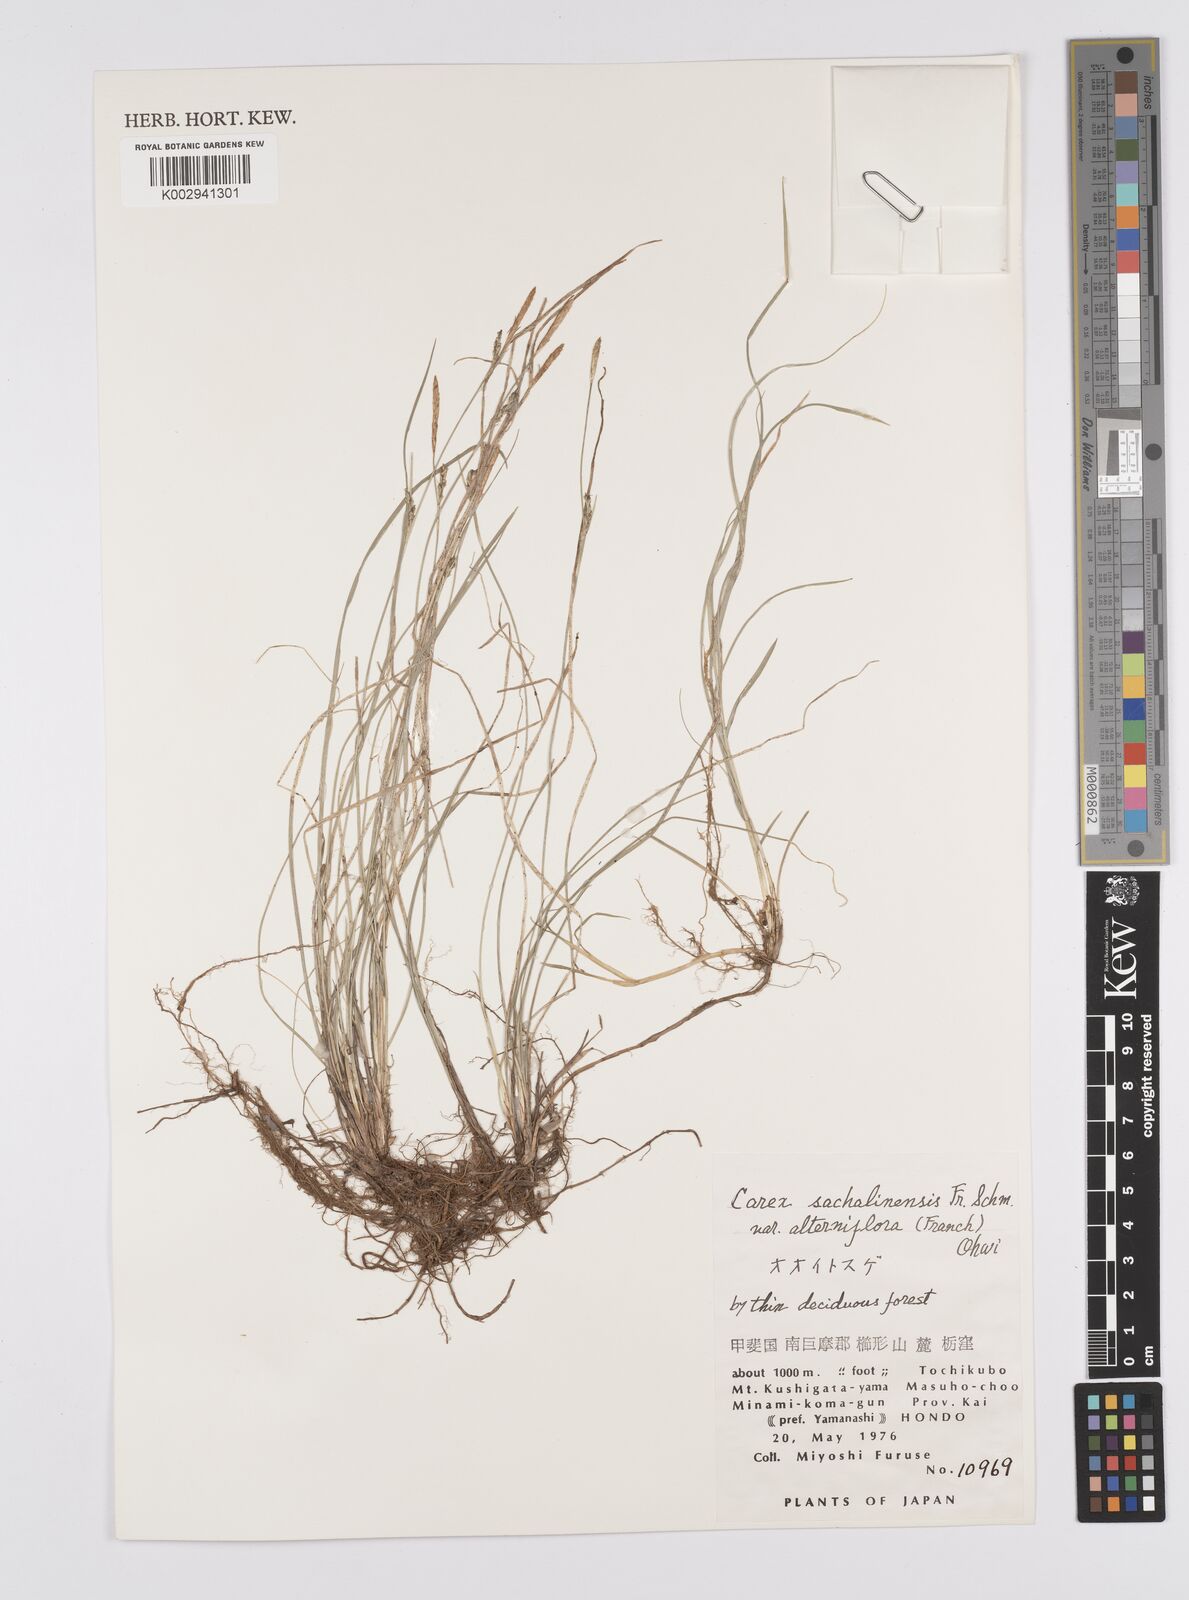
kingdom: Plantae
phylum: Tracheophyta
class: Liliopsida
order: Poales
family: Cyperaceae
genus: Carex
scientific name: Carex pisiformis
